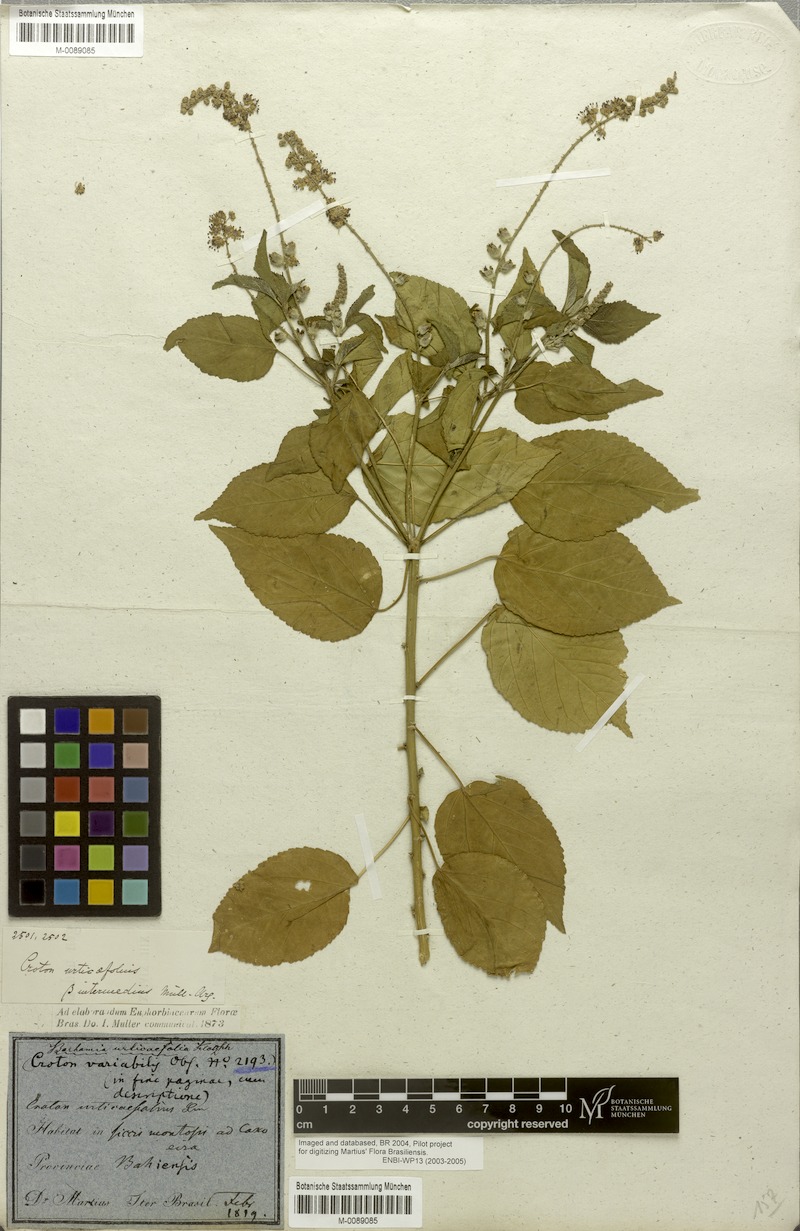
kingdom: Plantae
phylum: Tracheophyta
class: Magnoliopsida
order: Malpighiales
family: Euphorbiaceae
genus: Croton
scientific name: Croton urticifolius
